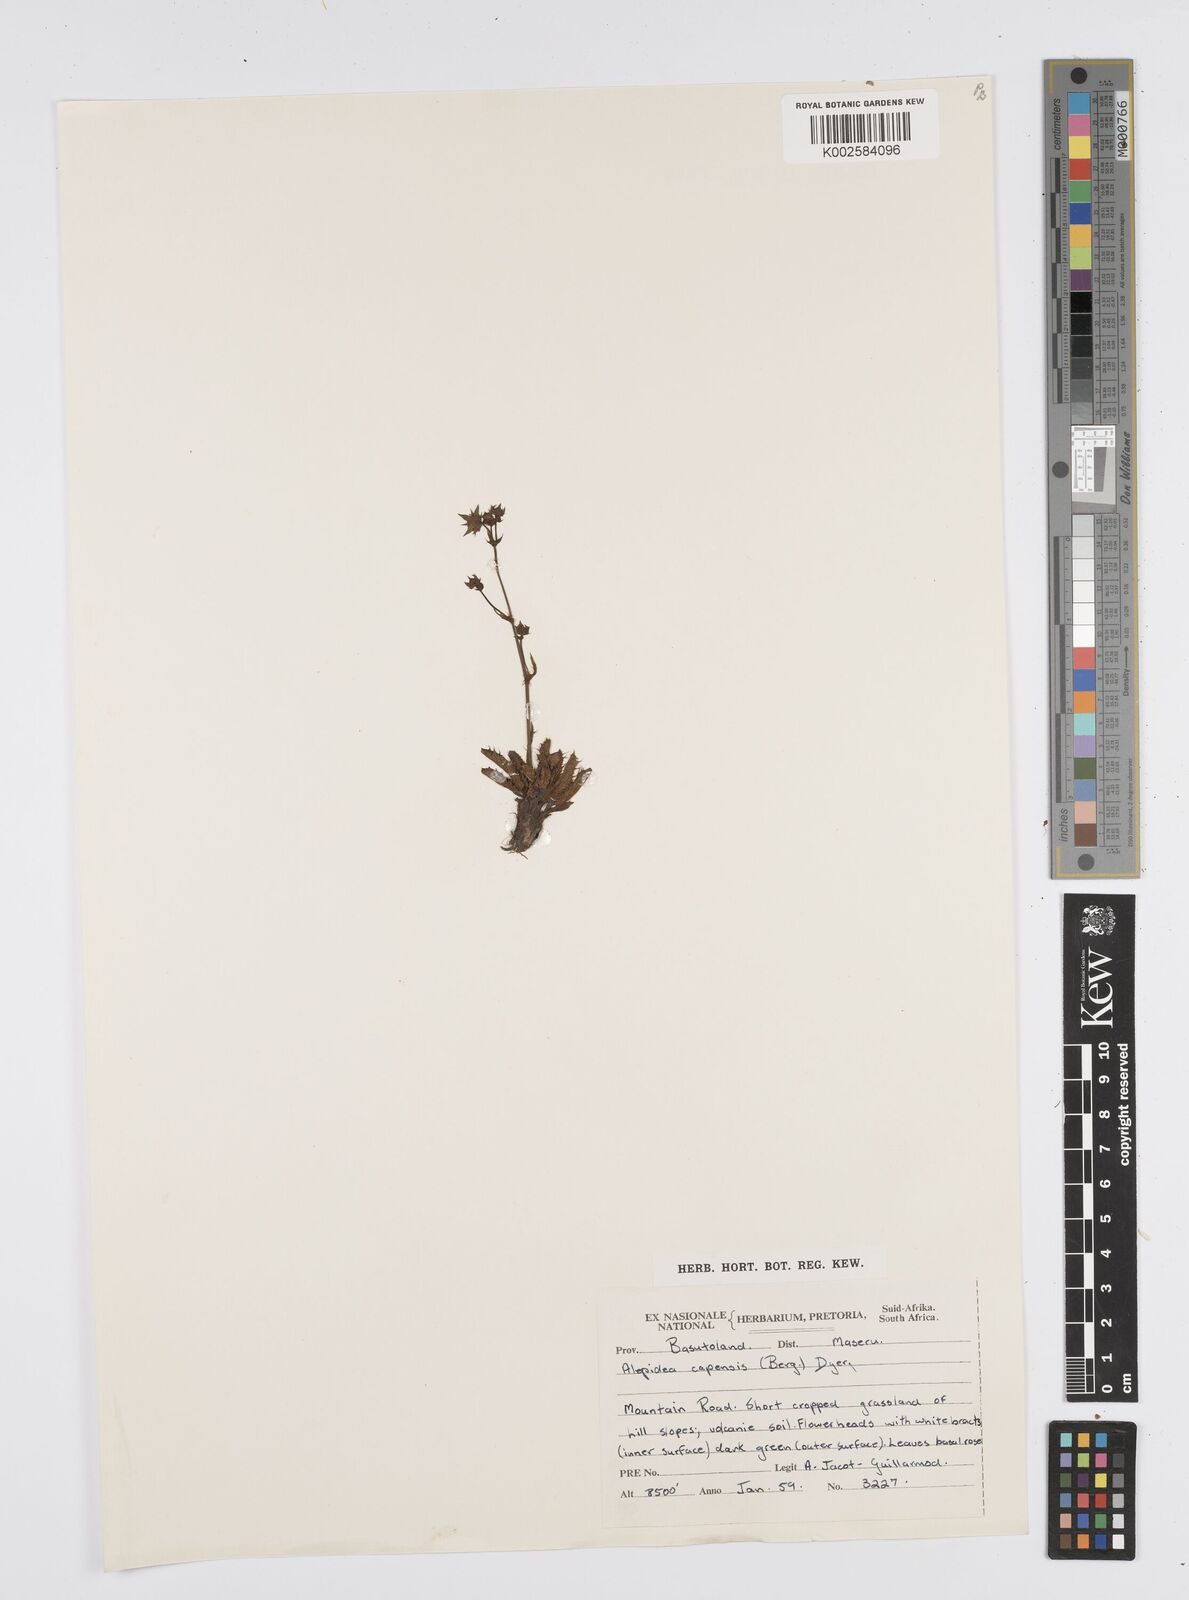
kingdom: Plantae
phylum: Tracheophyta
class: Magnoliopsida
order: Apiales
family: Apiaceae
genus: Alepidea
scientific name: Alepidea capensis
